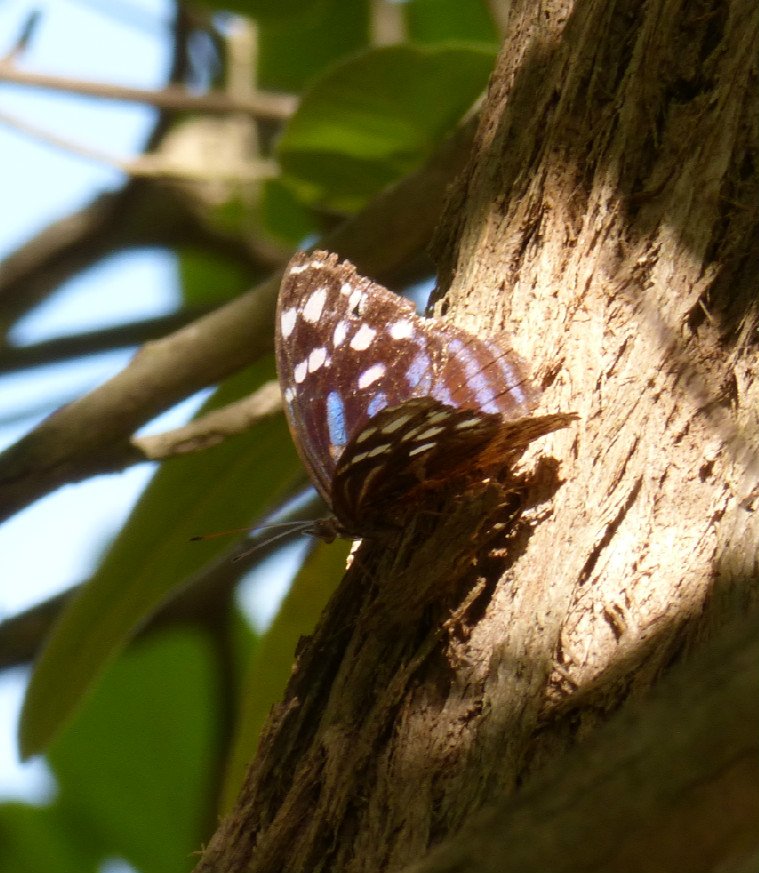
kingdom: Animalia
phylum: Arthropoda
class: Insecta
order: Lepidoptera
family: Nymphalidae
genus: Myscelia
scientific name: Myscelia ethusa
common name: Mexican Bluewing
